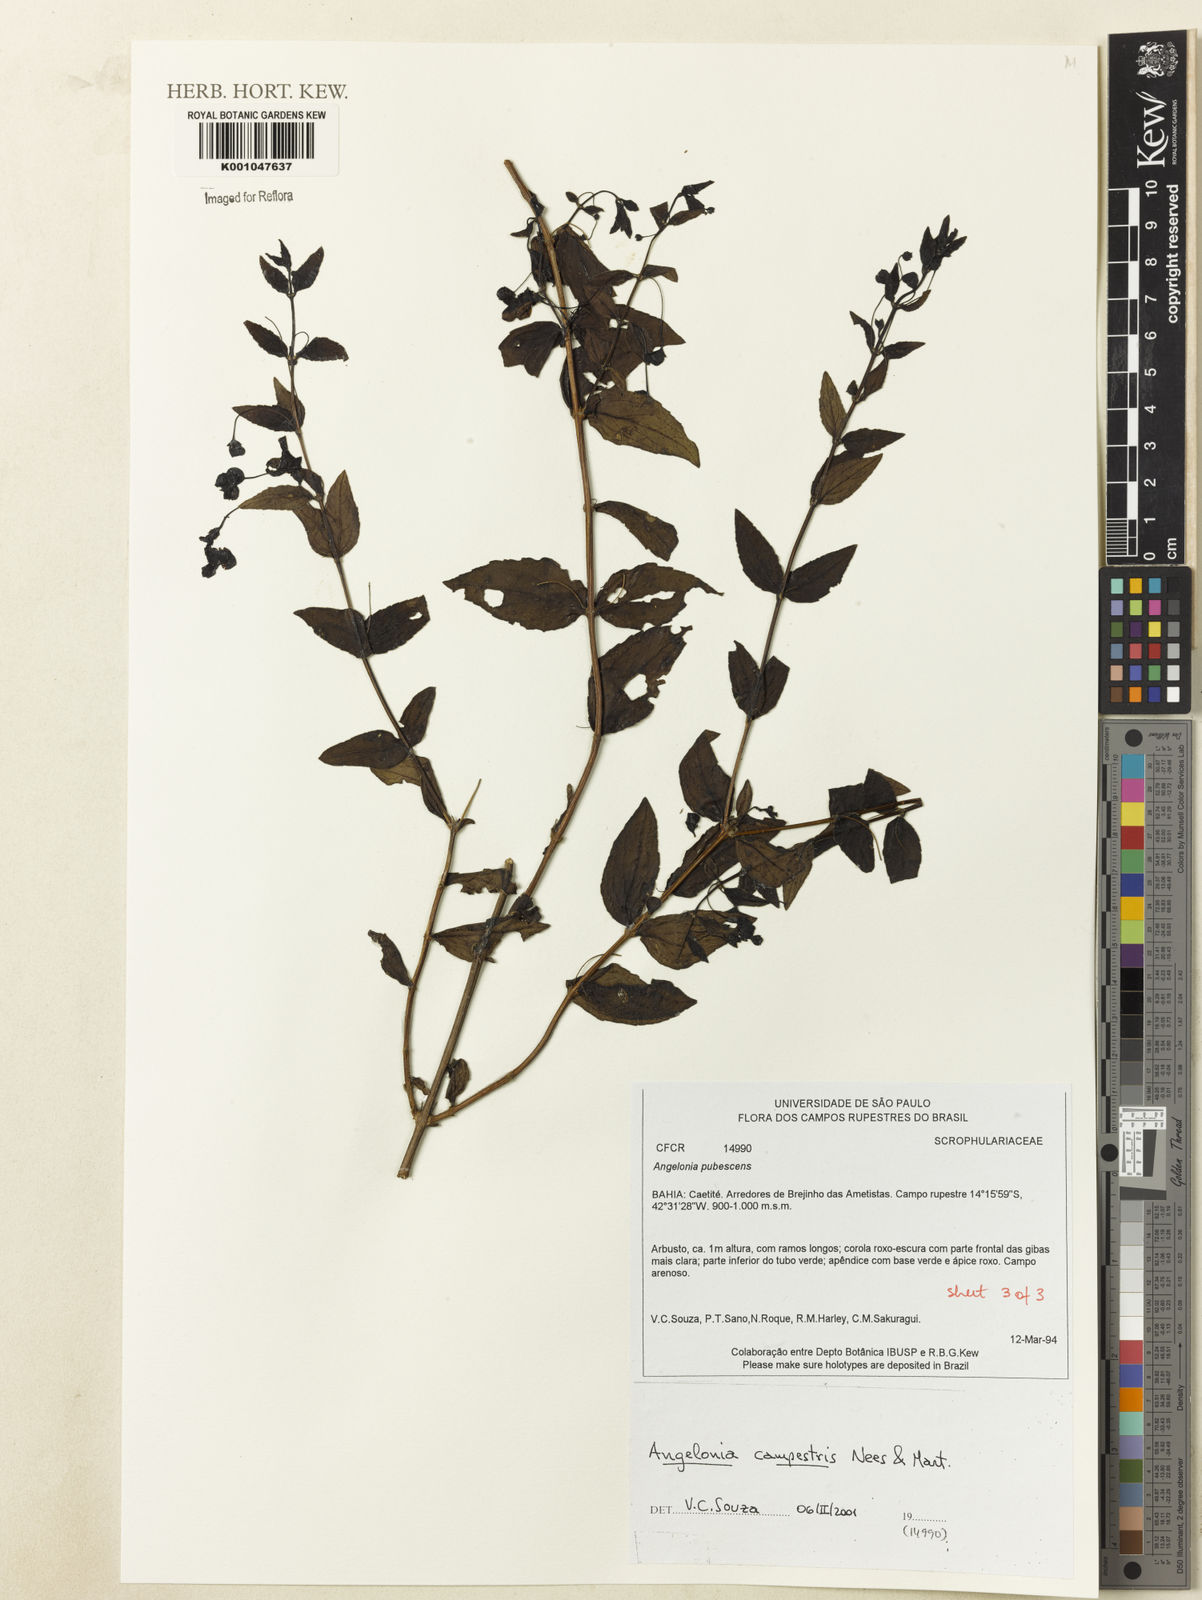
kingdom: Plantae
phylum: Tracheophyta
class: Magnoliopsida
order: Lamiales
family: Plantaginaceae
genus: Angelonia
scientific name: Angelonia campestris
